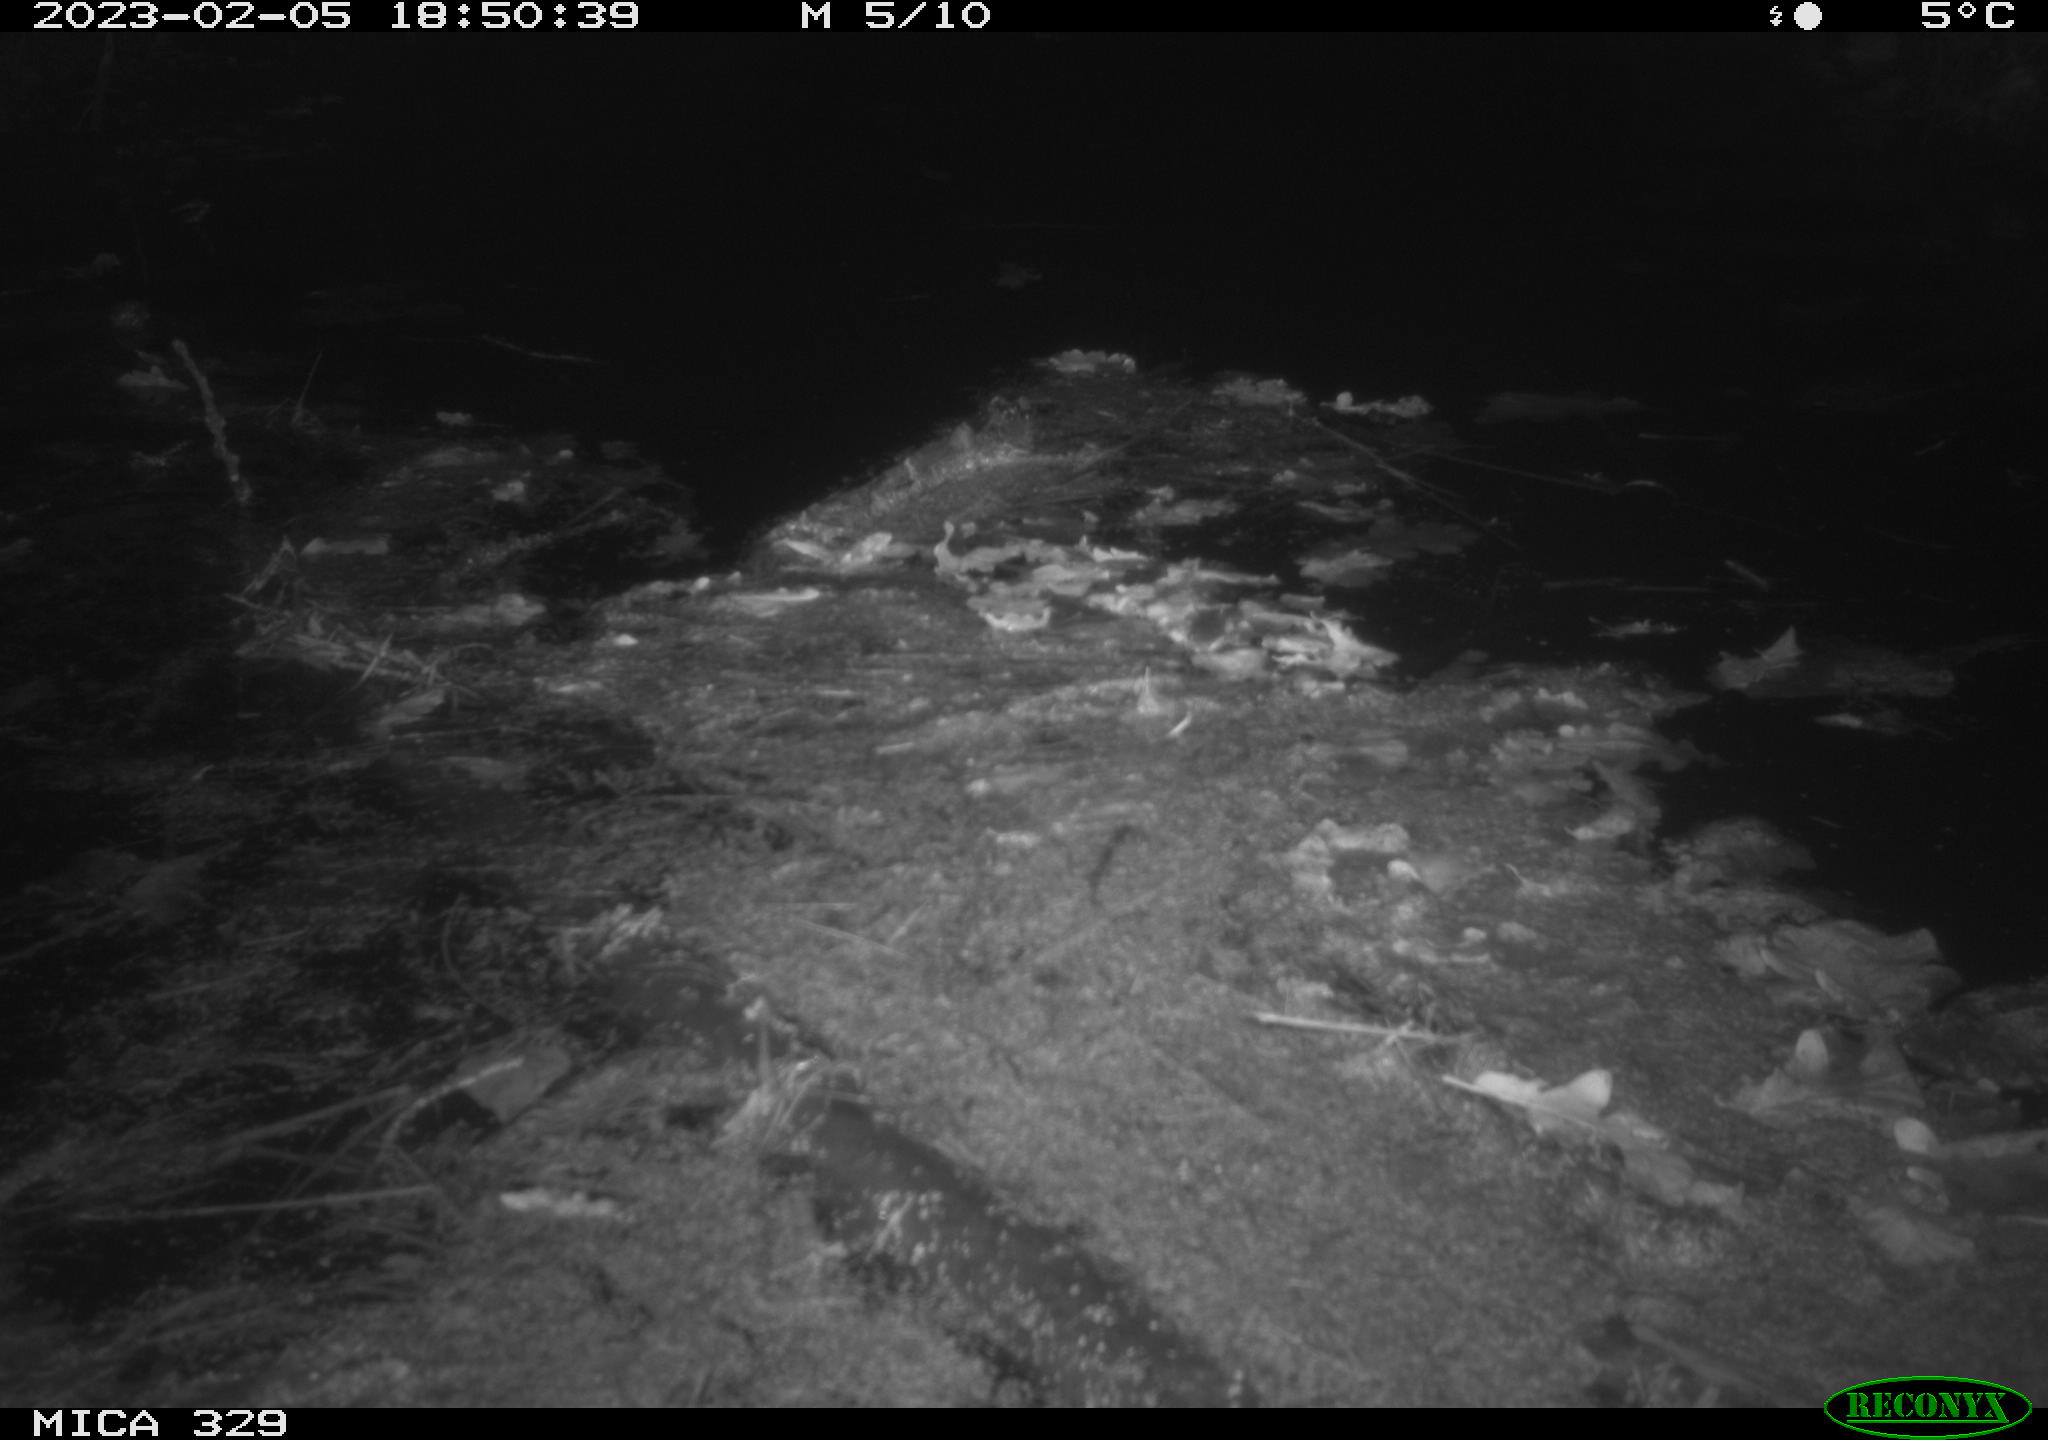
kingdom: Animalia
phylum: Chordata
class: Mammalia
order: Rodentia
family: Cricetidae
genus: Ondatra
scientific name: Ondatra zibethicus
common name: Muskrat
